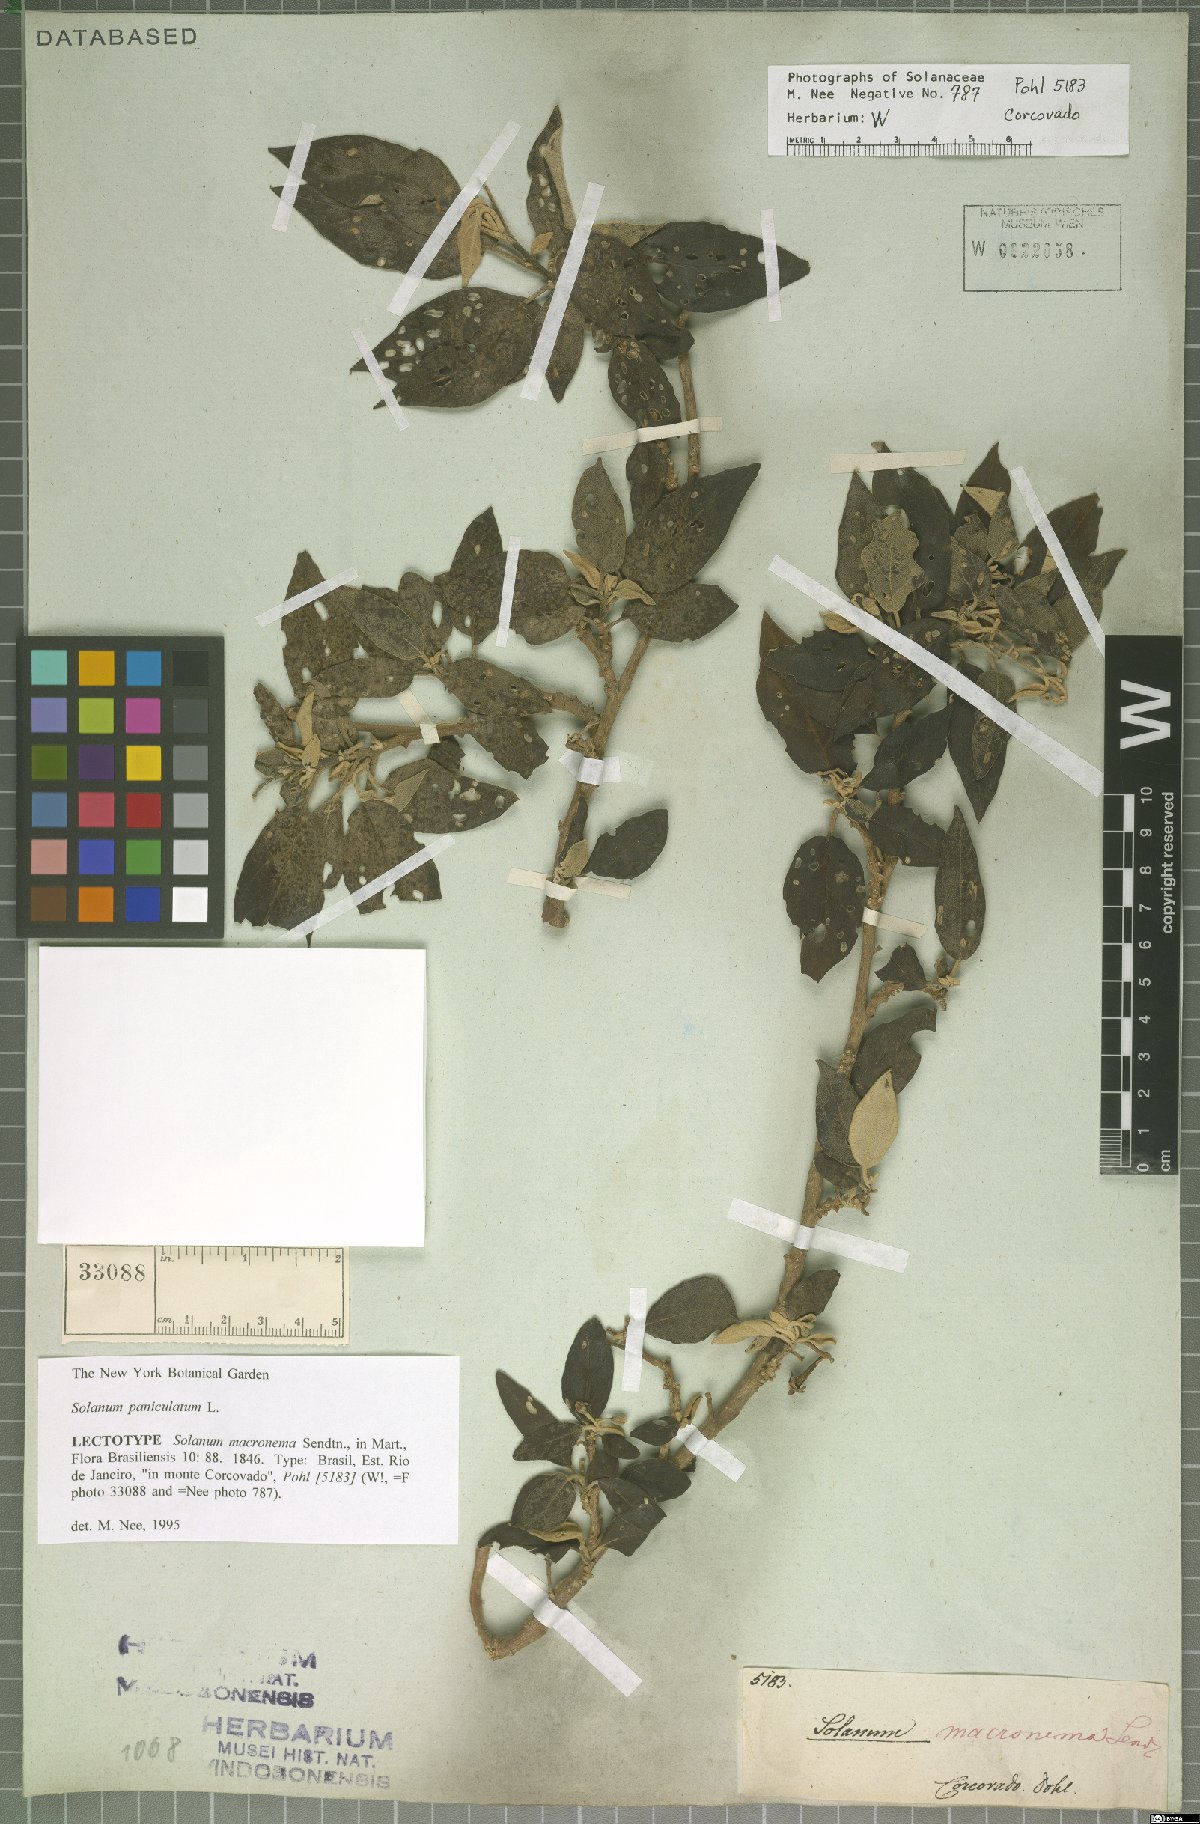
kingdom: Plantae
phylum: Tracheophyta
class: Magnoliopsida
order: Solanales
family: Solanaceae
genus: Solanum
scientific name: Solanum paniculatum
